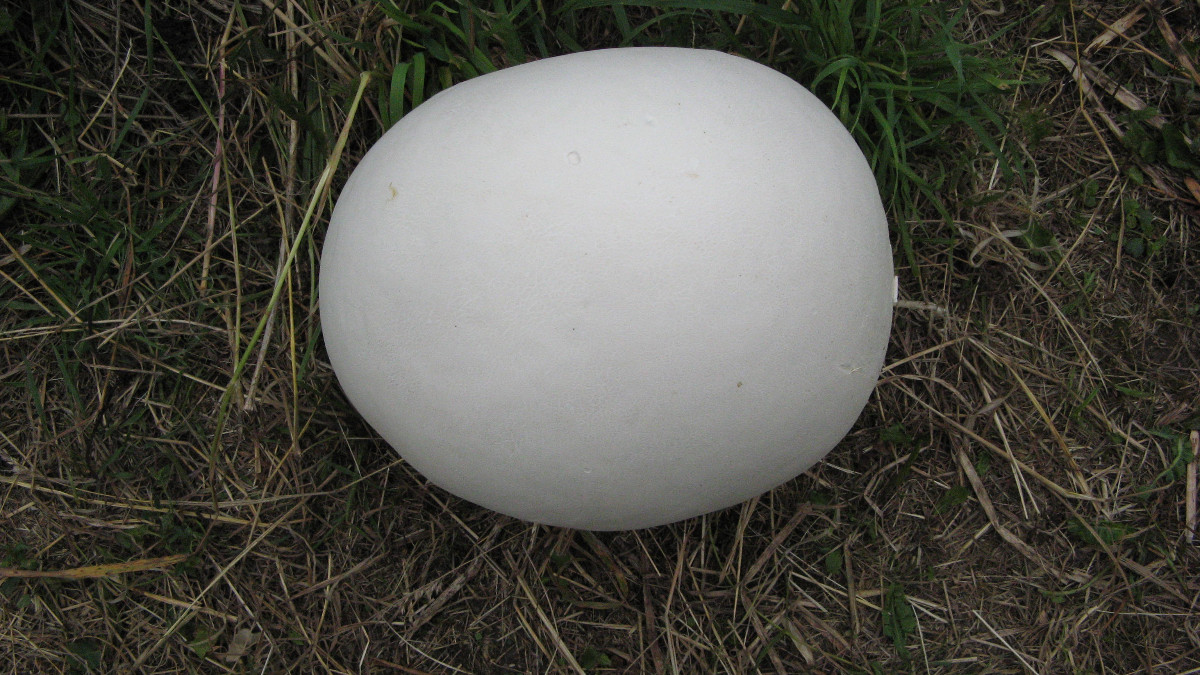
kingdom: Fungi
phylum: Basidiomycota
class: Agaricomycetes
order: Agaricales
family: Lycoperdaceae
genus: Calvatia
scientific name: Calvatia gigantea
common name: kæmpestøvbold
